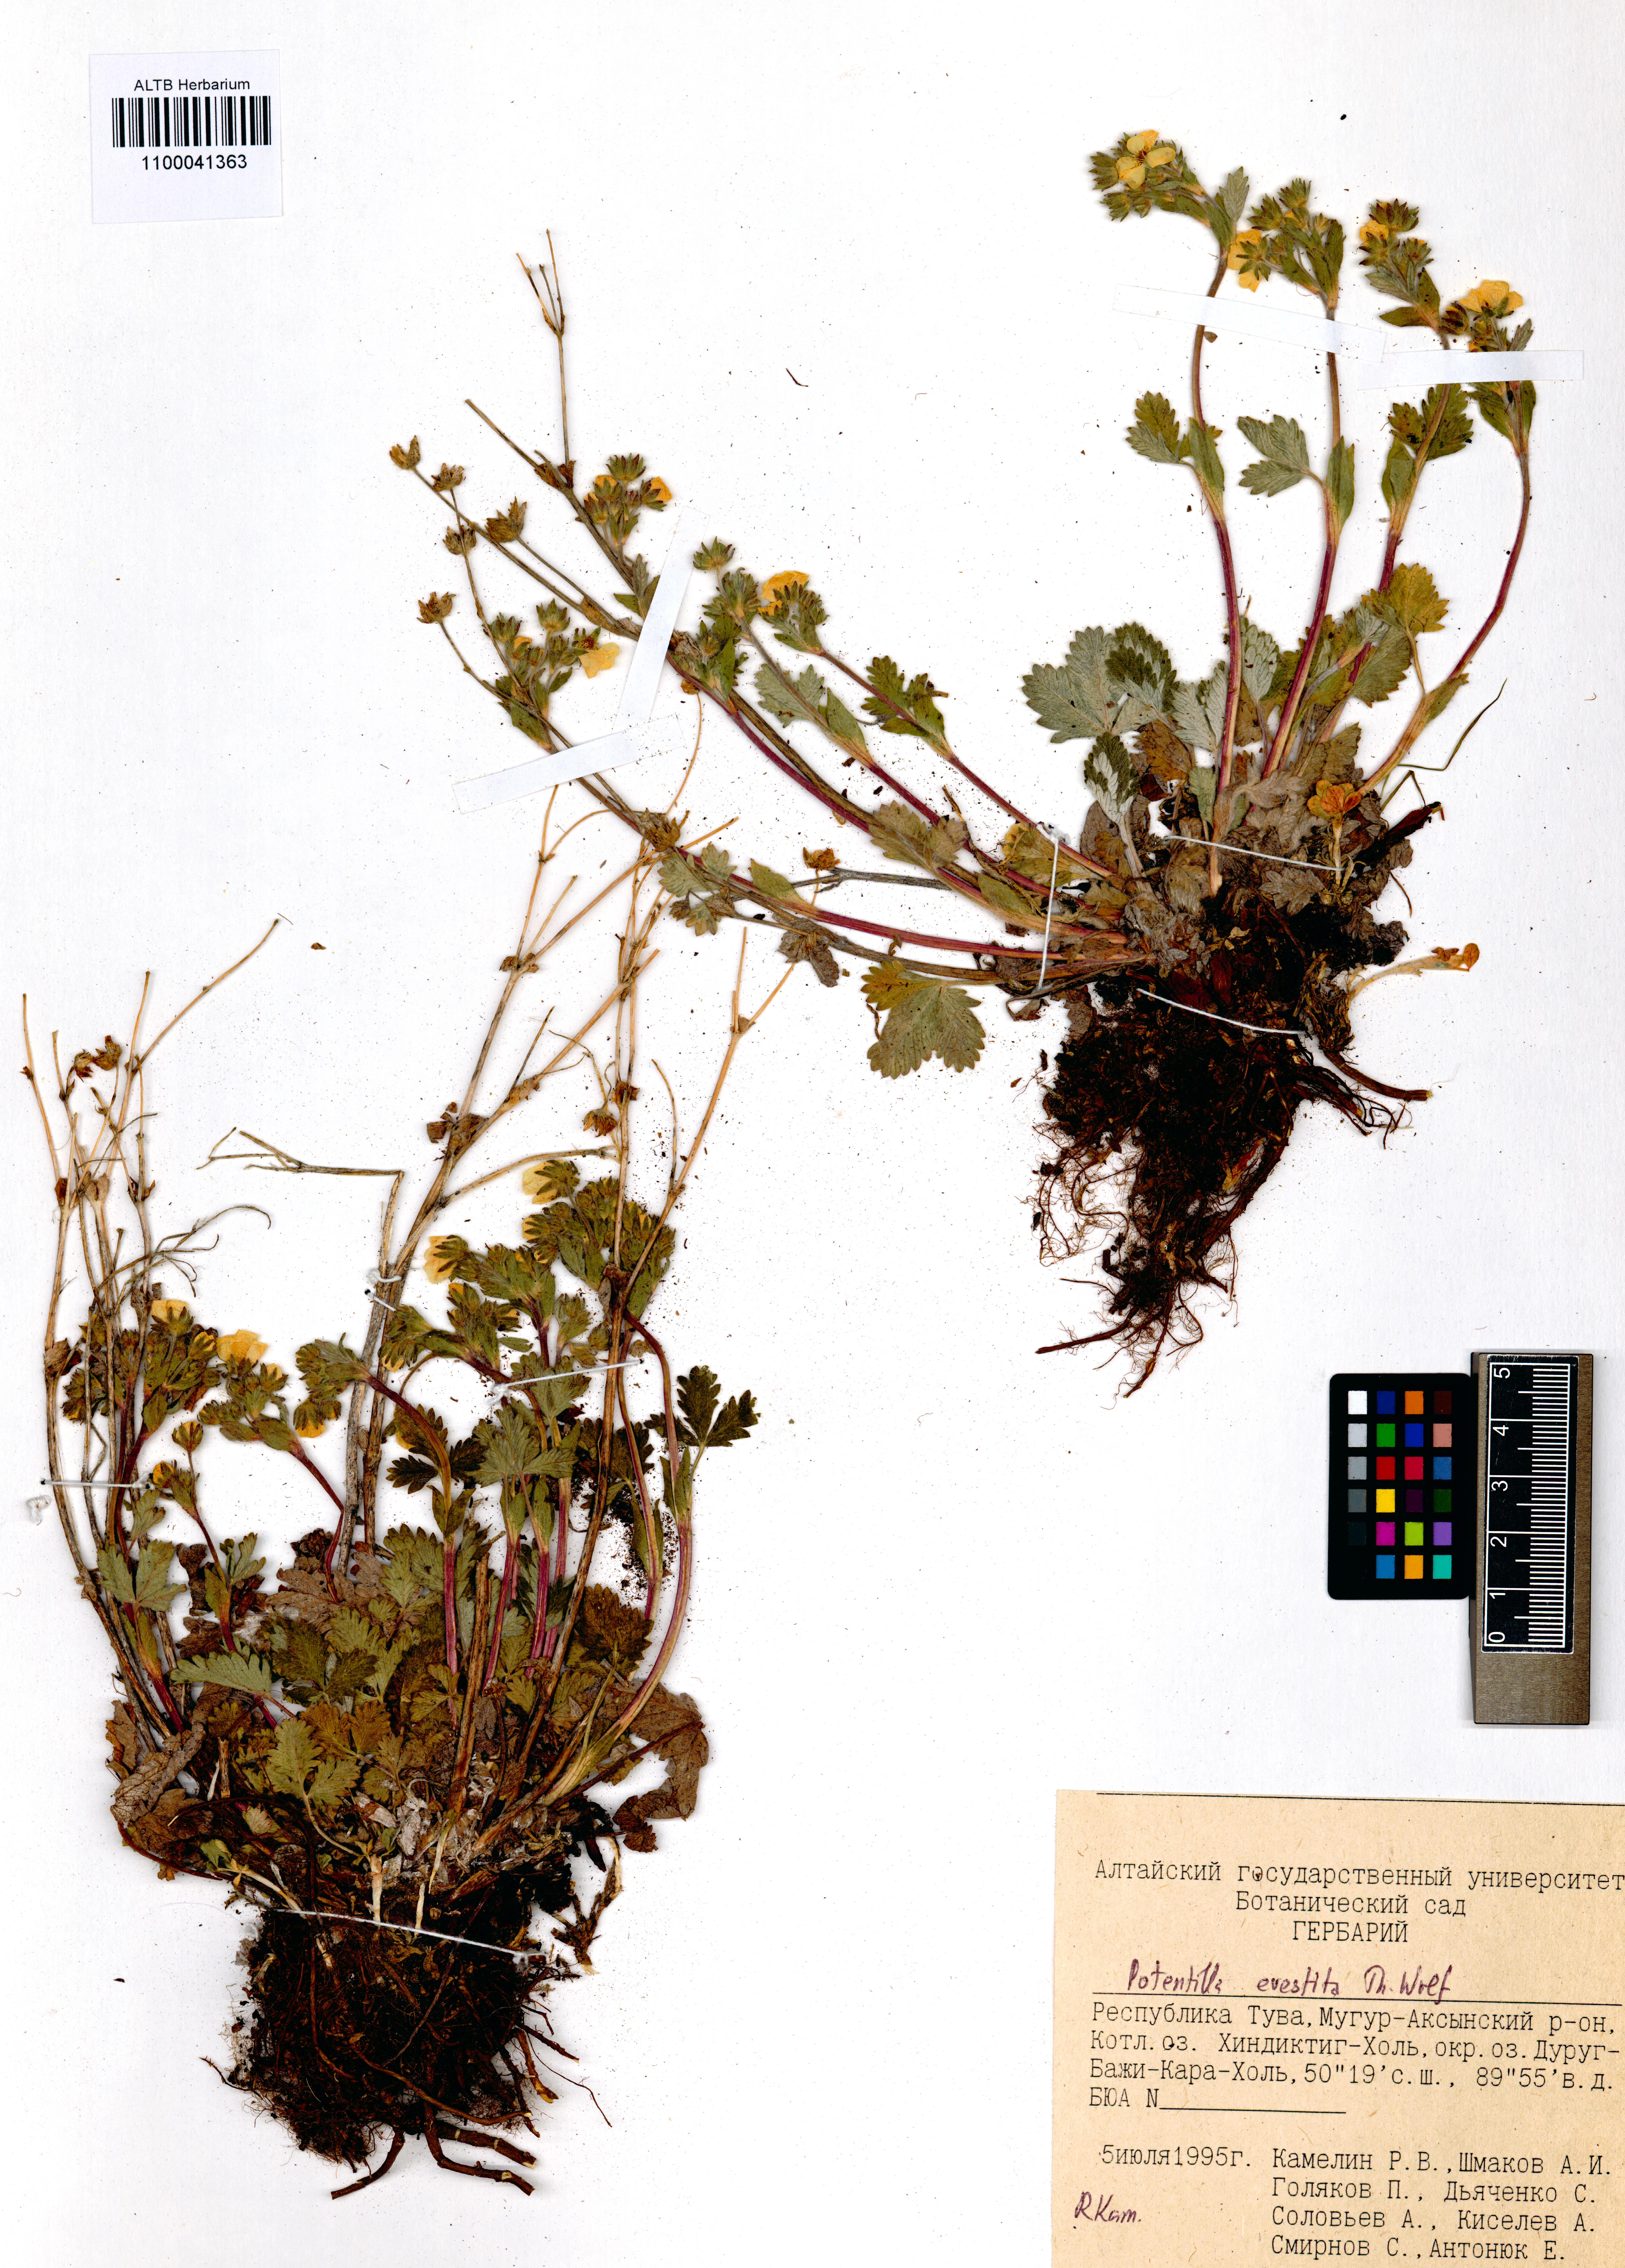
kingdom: Plantae
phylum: Tracheophyta
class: Magnoliopsida
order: Rosales
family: Rosaceae
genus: Potentilla
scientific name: Potentilla evestita
